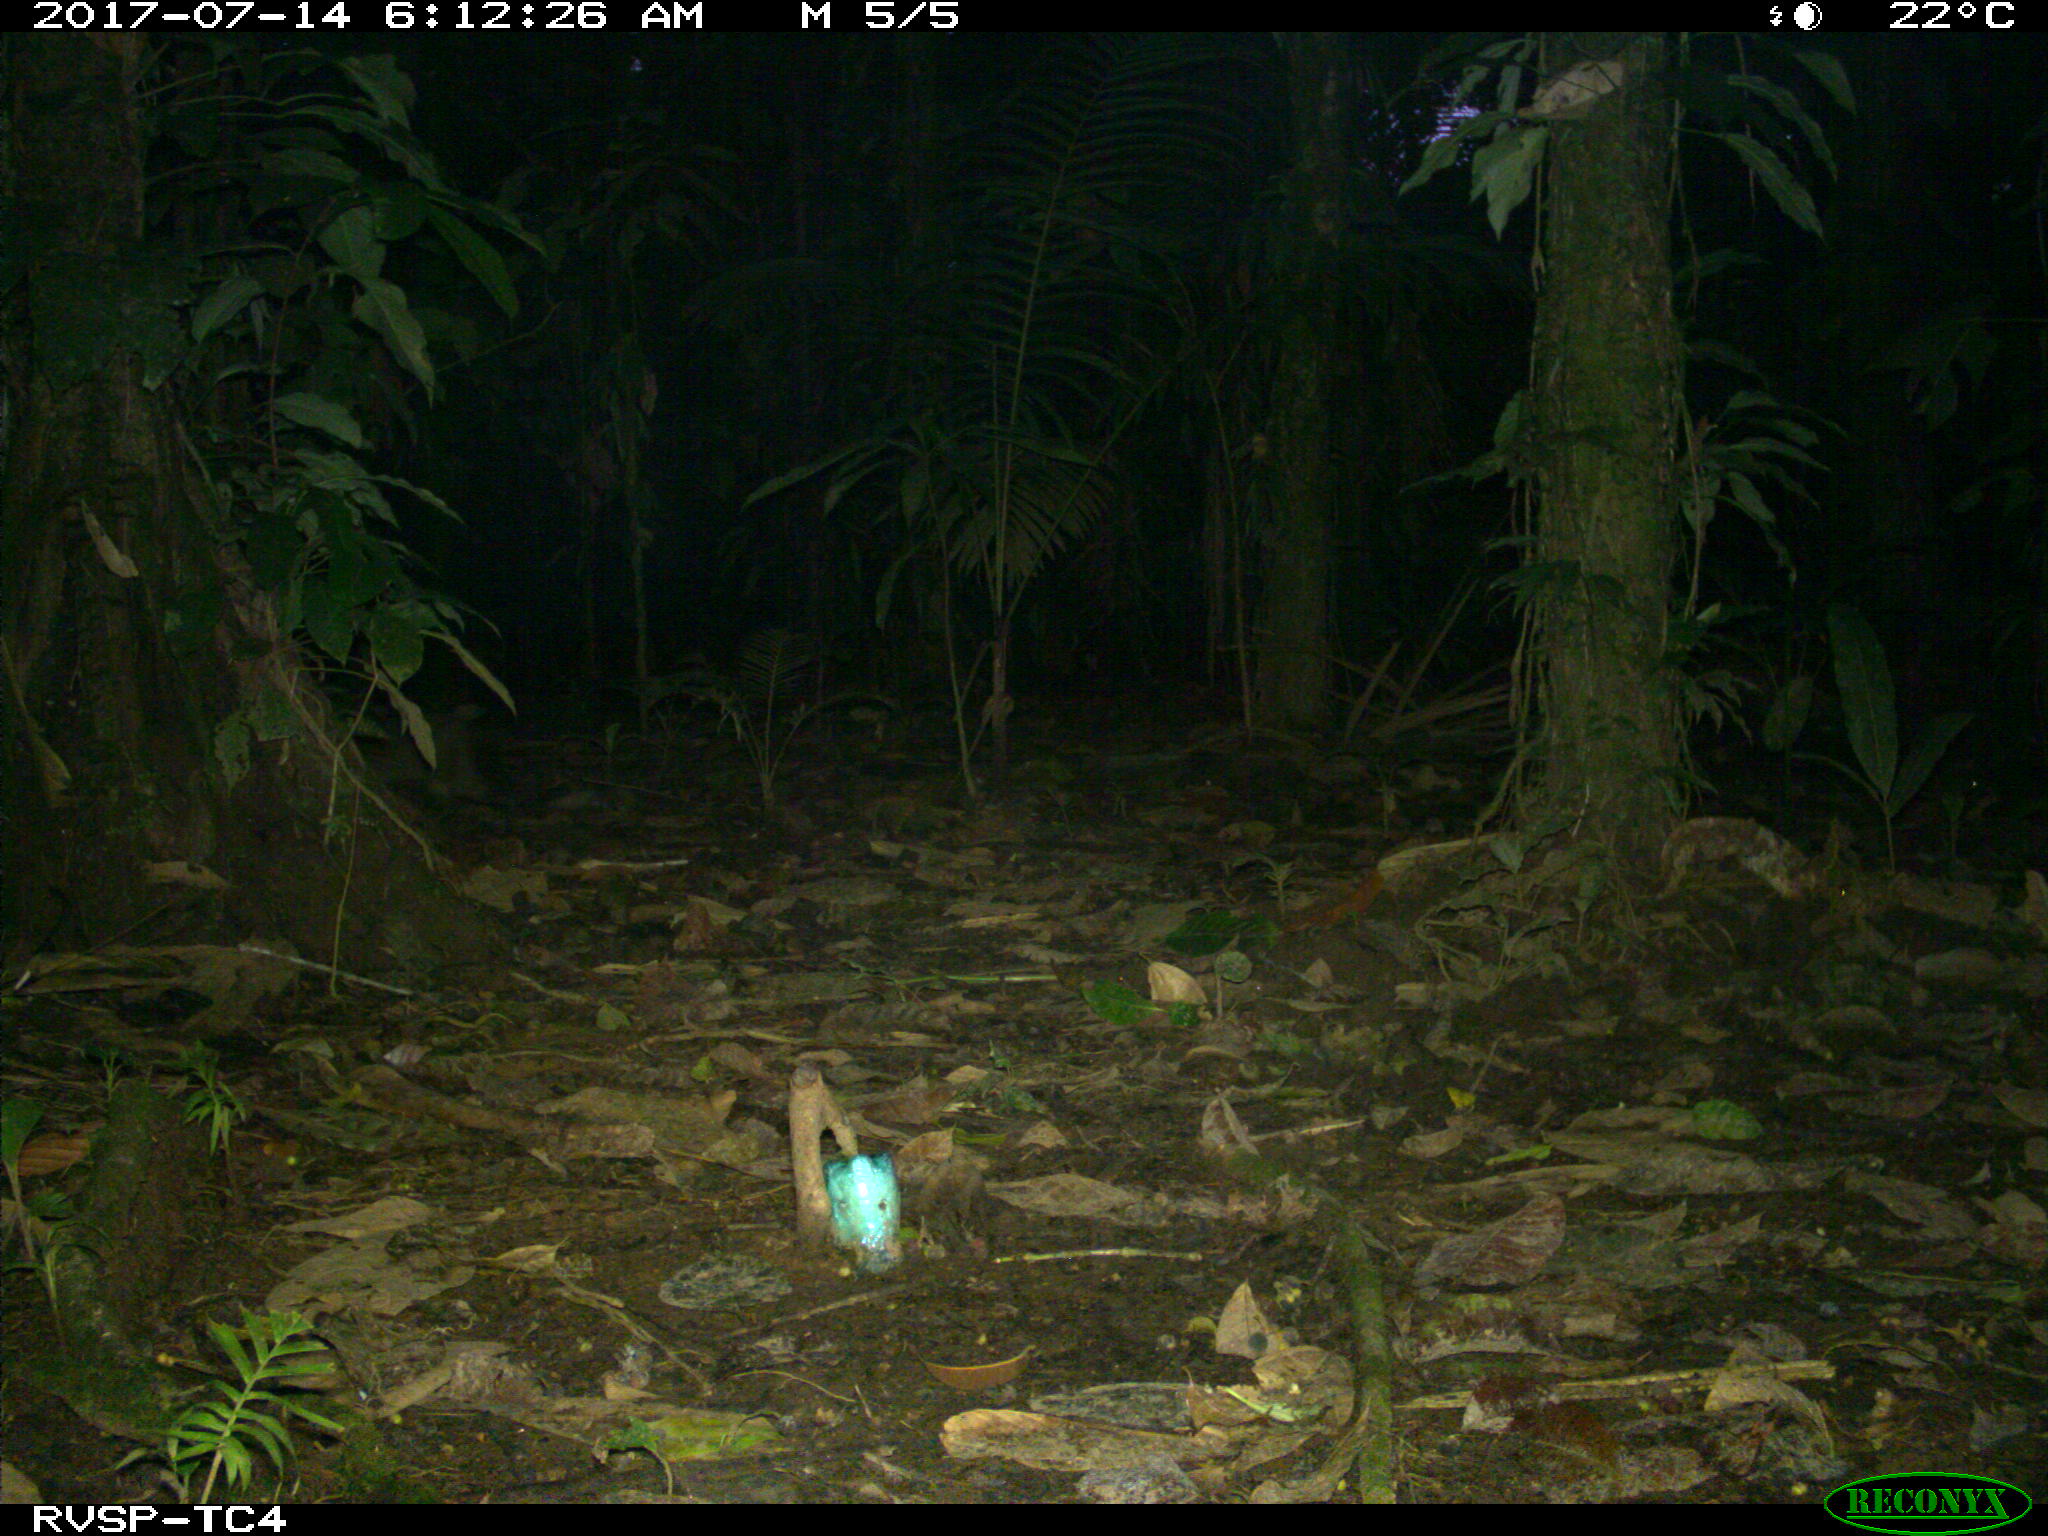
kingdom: Animalia
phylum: Chordata
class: Mammalia
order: Rodentia
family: Dasyproctidae
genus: Dasyprocta
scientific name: Dasyprocta punctata
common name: Central american agouti
